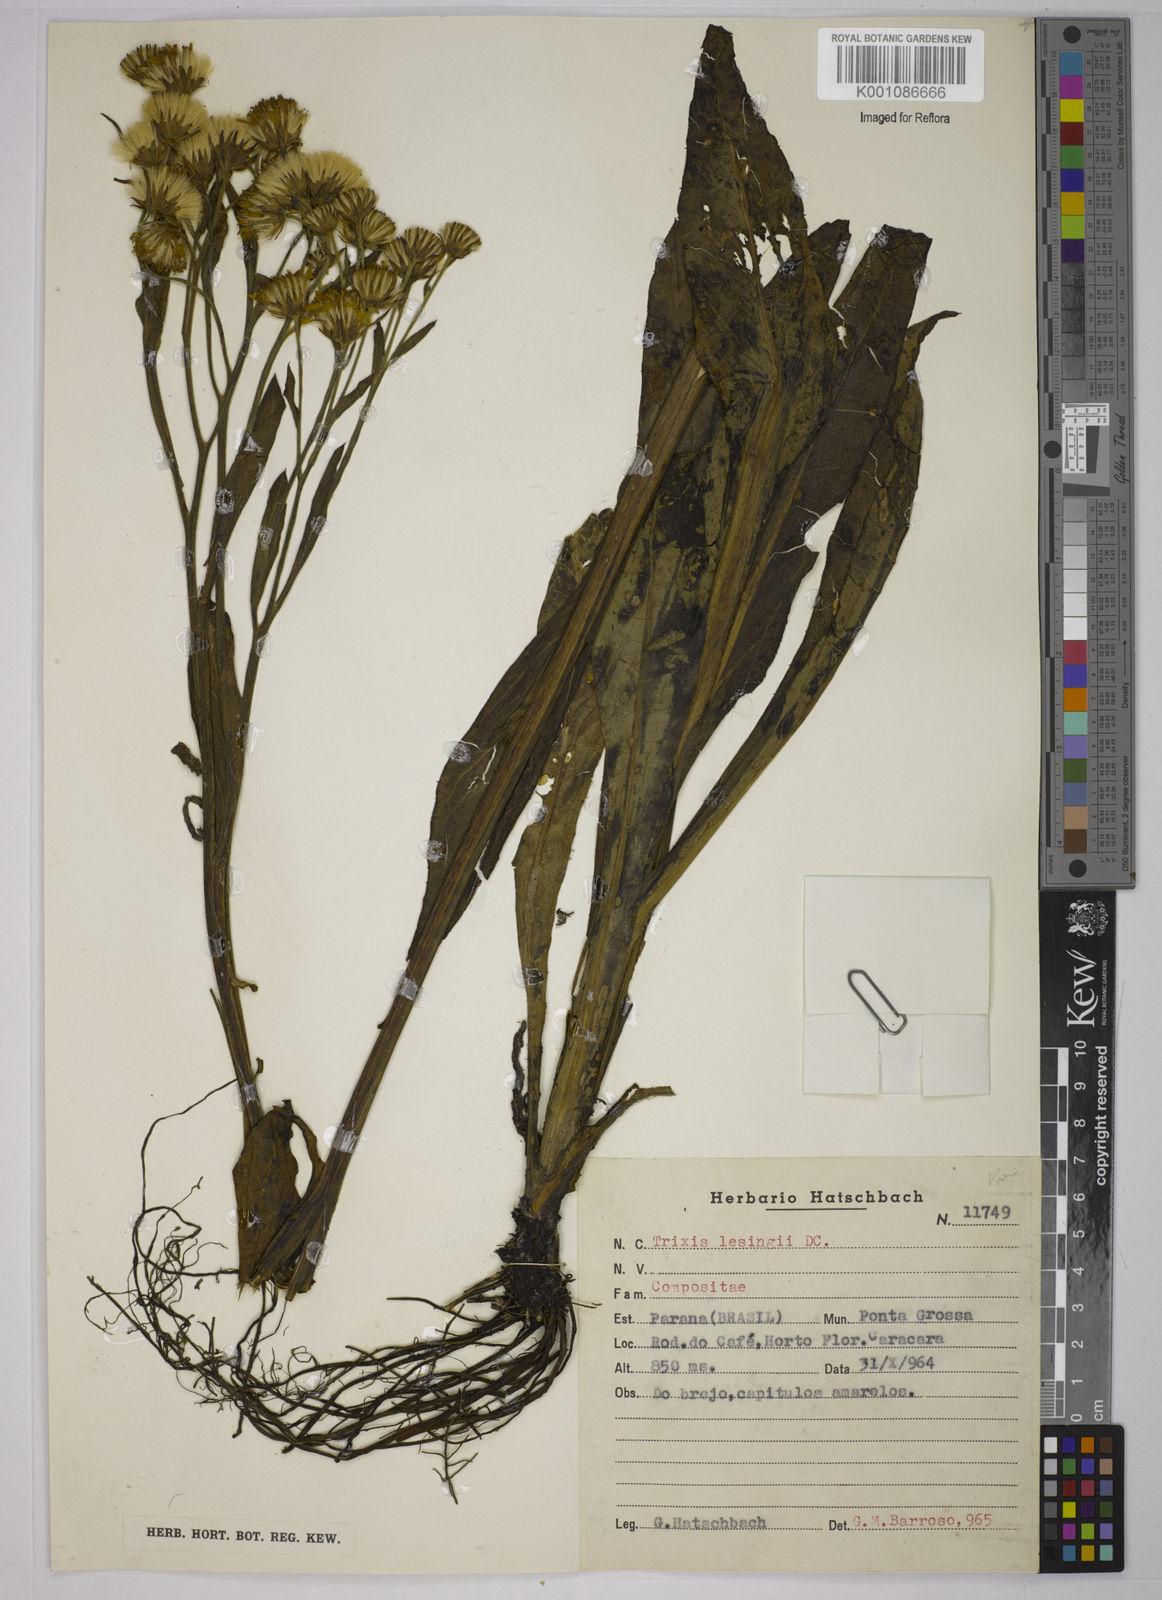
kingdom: Plantae
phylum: Tracheophyta
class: Magnoliopsida
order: Asterales
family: Asteraceae
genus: Trixis
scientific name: Trixis lessingii
